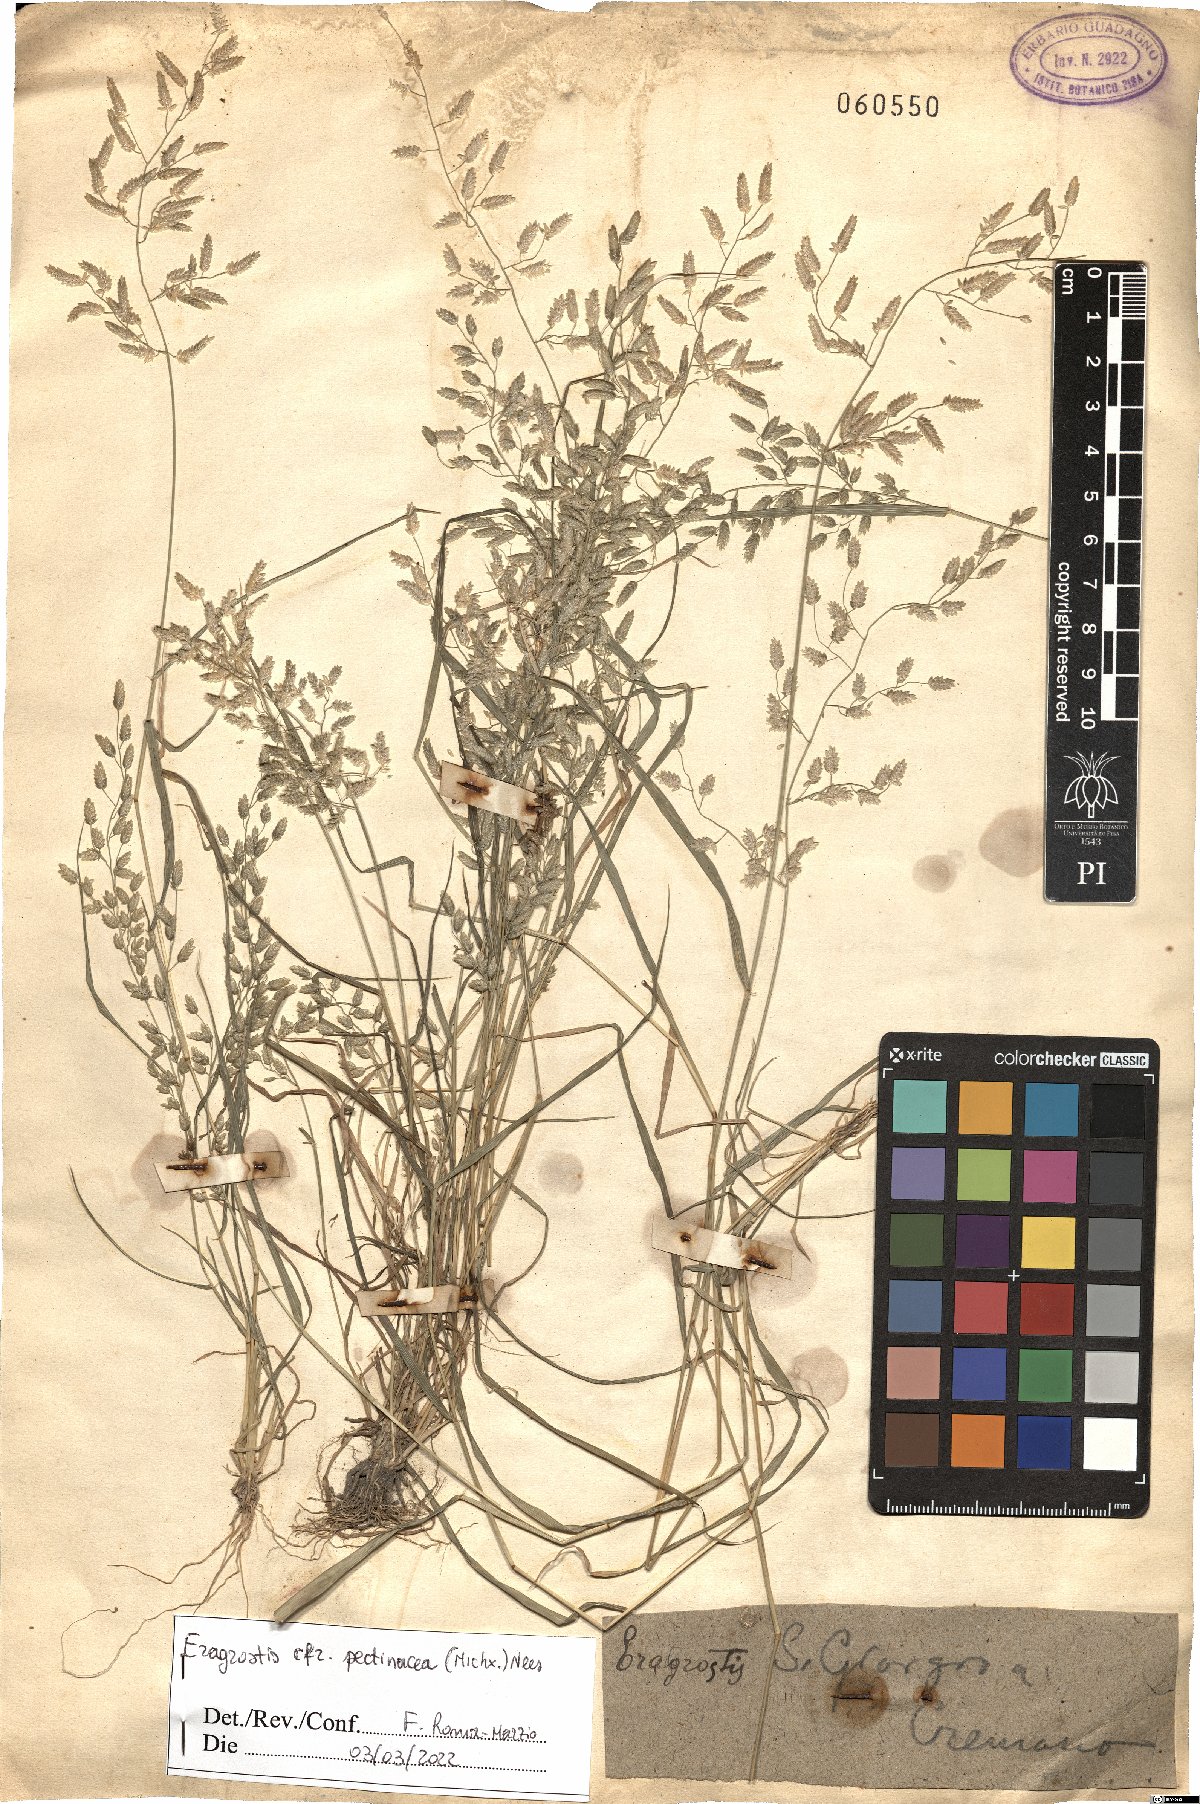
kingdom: Plantae
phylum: Tracheophyta
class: Liliopsida
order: Poales
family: Poaceae
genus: Eragrostis
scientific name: Eragrostis pectinacea
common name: Tufted lovegrass
